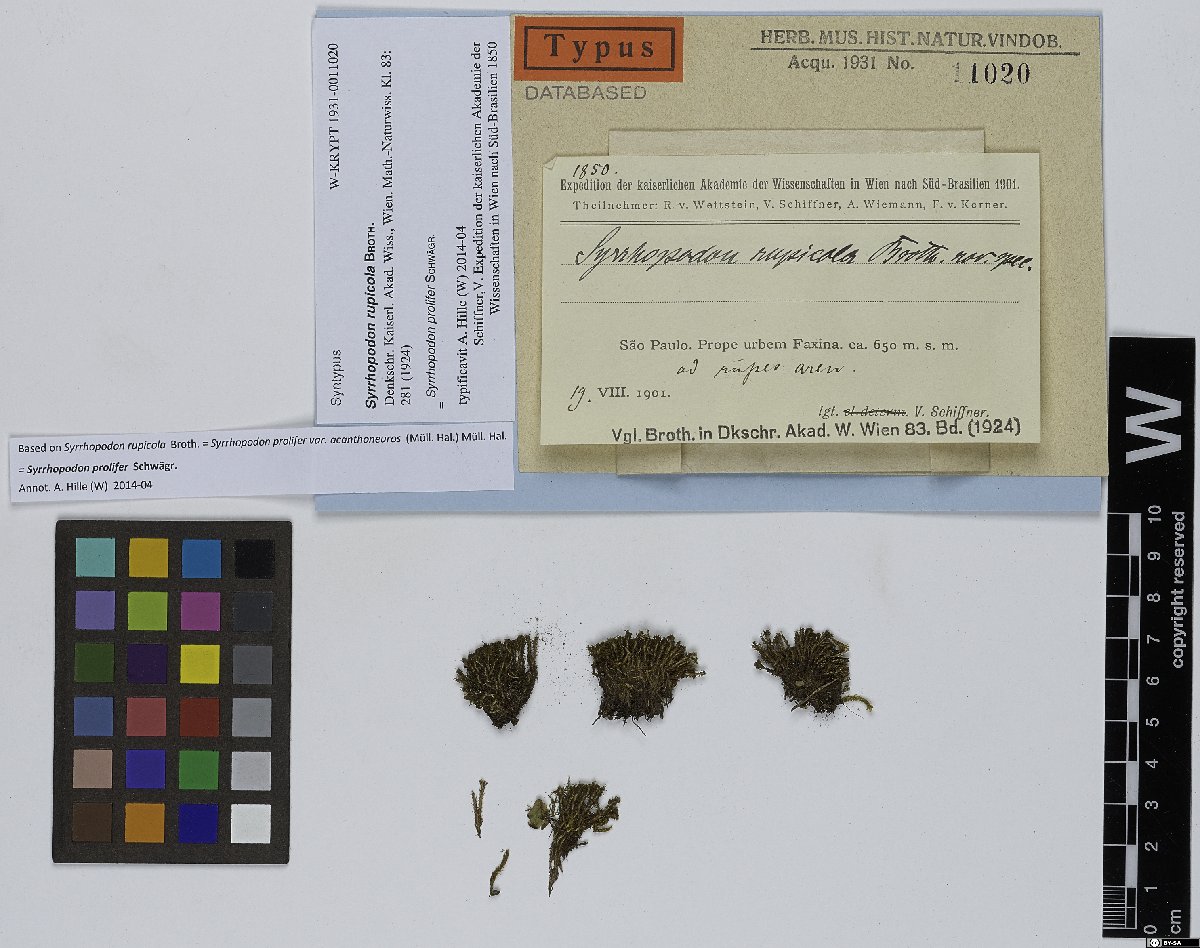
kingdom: Plantae
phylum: Bryophyta
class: Bryopsida
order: Dicranales
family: Calymperaceae
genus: Syrrhopodon
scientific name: Syrrhopodon prolifer
